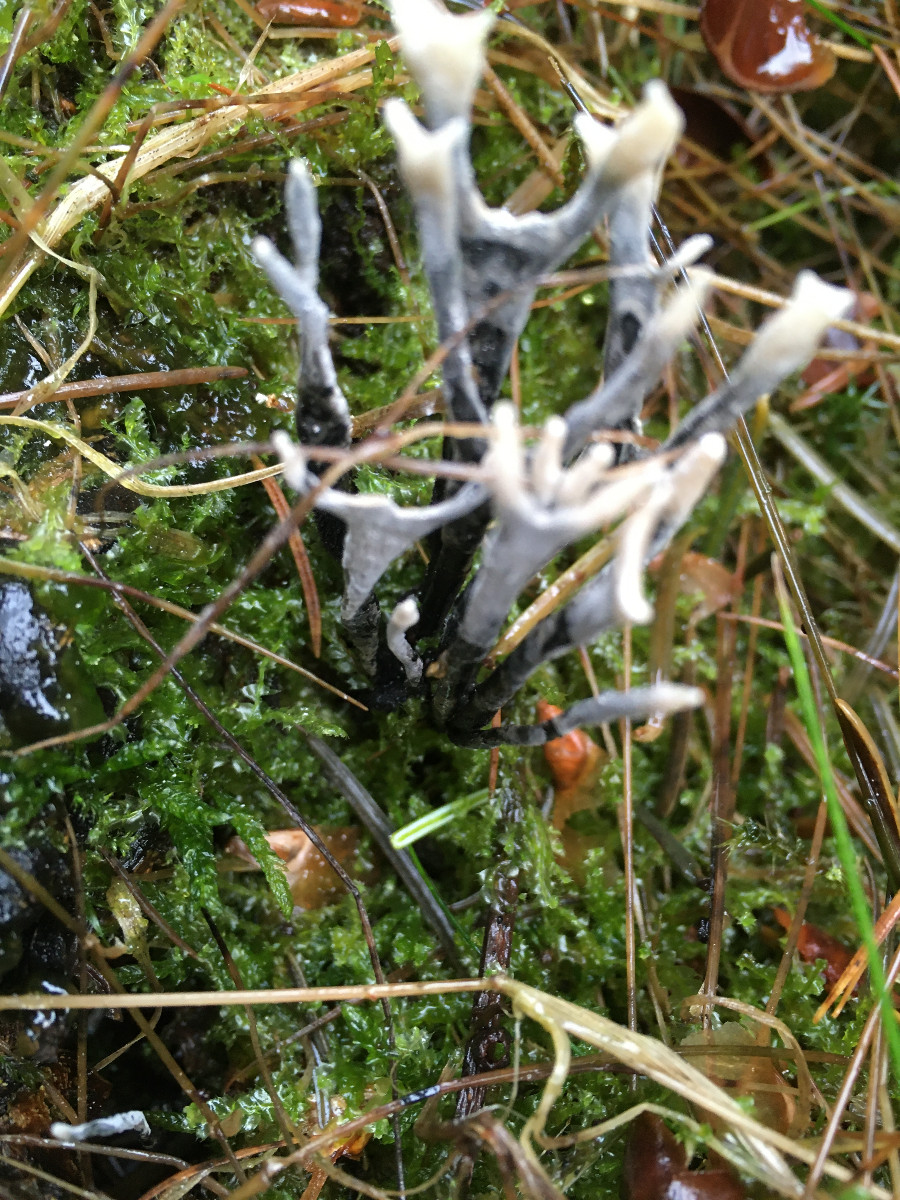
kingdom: Fungi
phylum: Ascomycota
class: Sordariomycetes
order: Xylariales
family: Xylariaceae
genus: Xylaria
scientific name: Xylaria hypoxylon
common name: grenet stødsvamp
